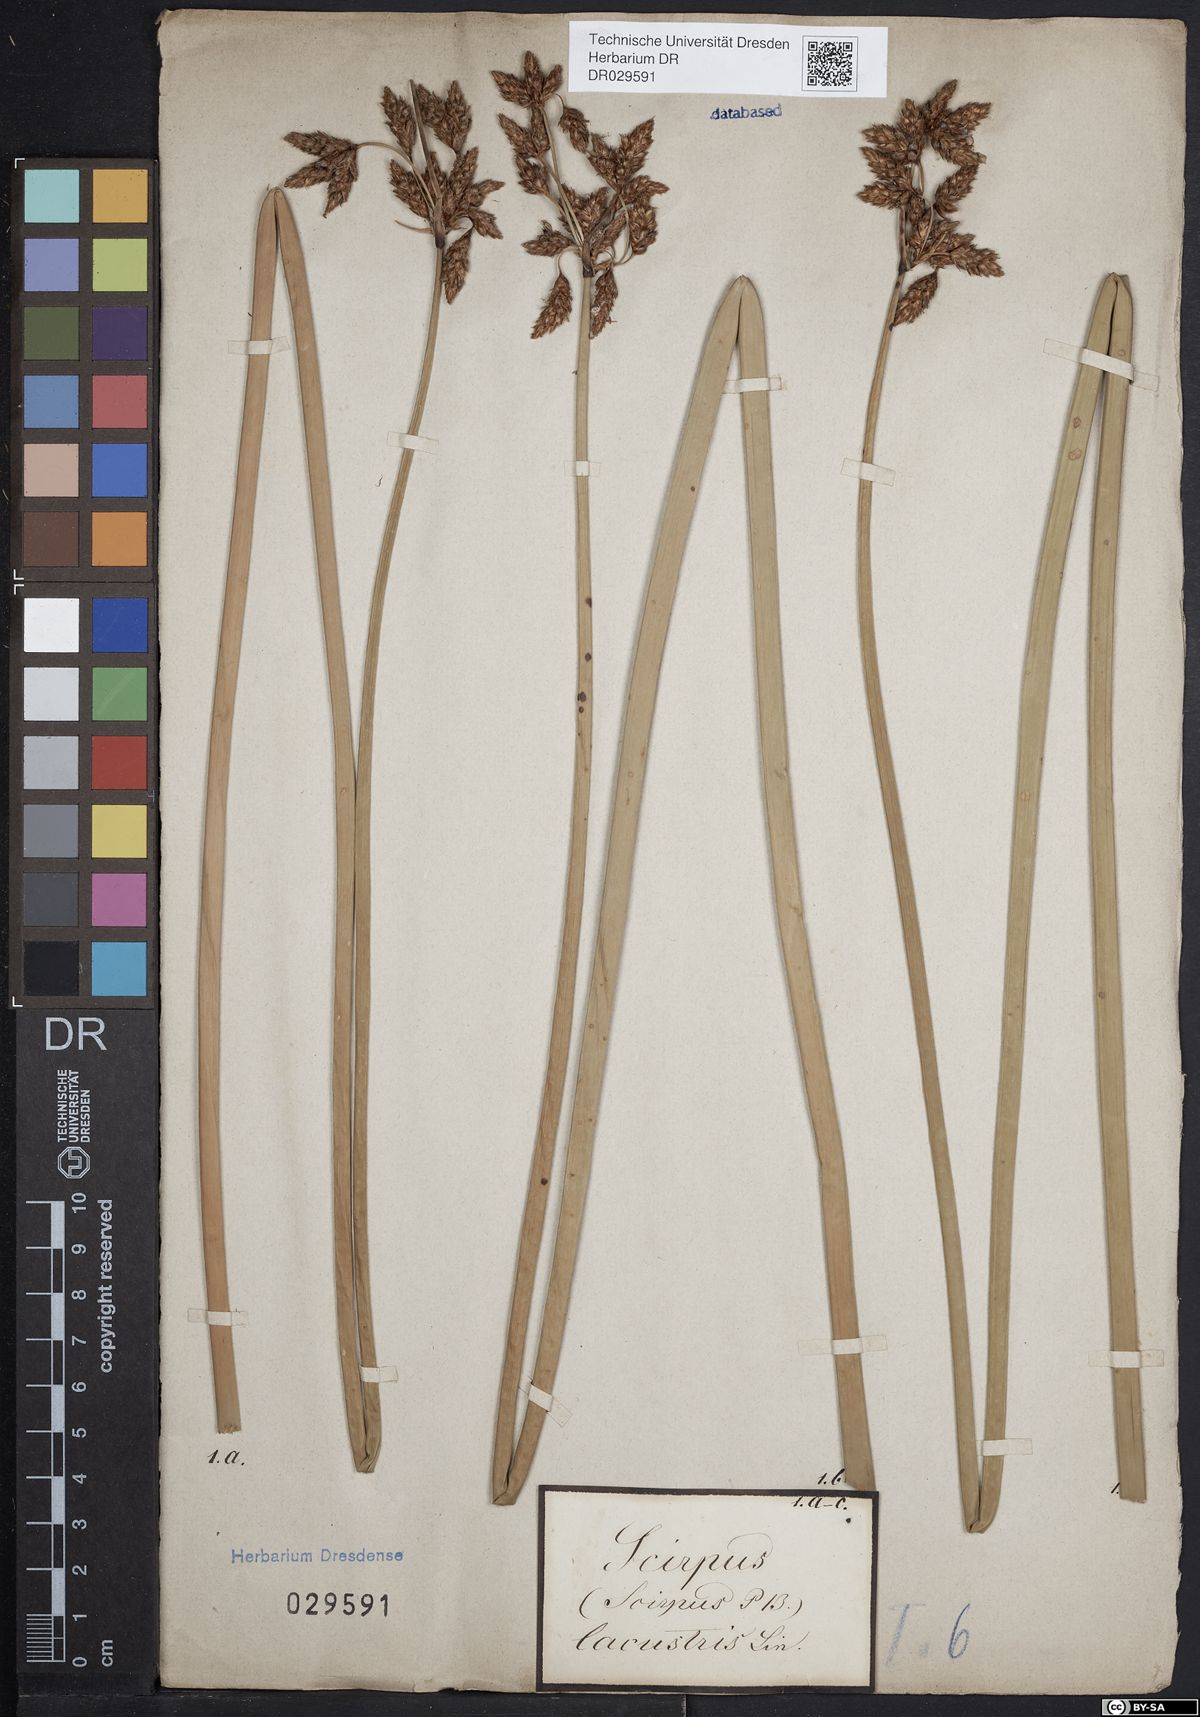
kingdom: Plantae
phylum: Tracheophyta
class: Liliopsida
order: Poales
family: Cyperaceae
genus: Schoenoplectus
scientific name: Schoenoplectus lacustris
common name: Common club-rush
